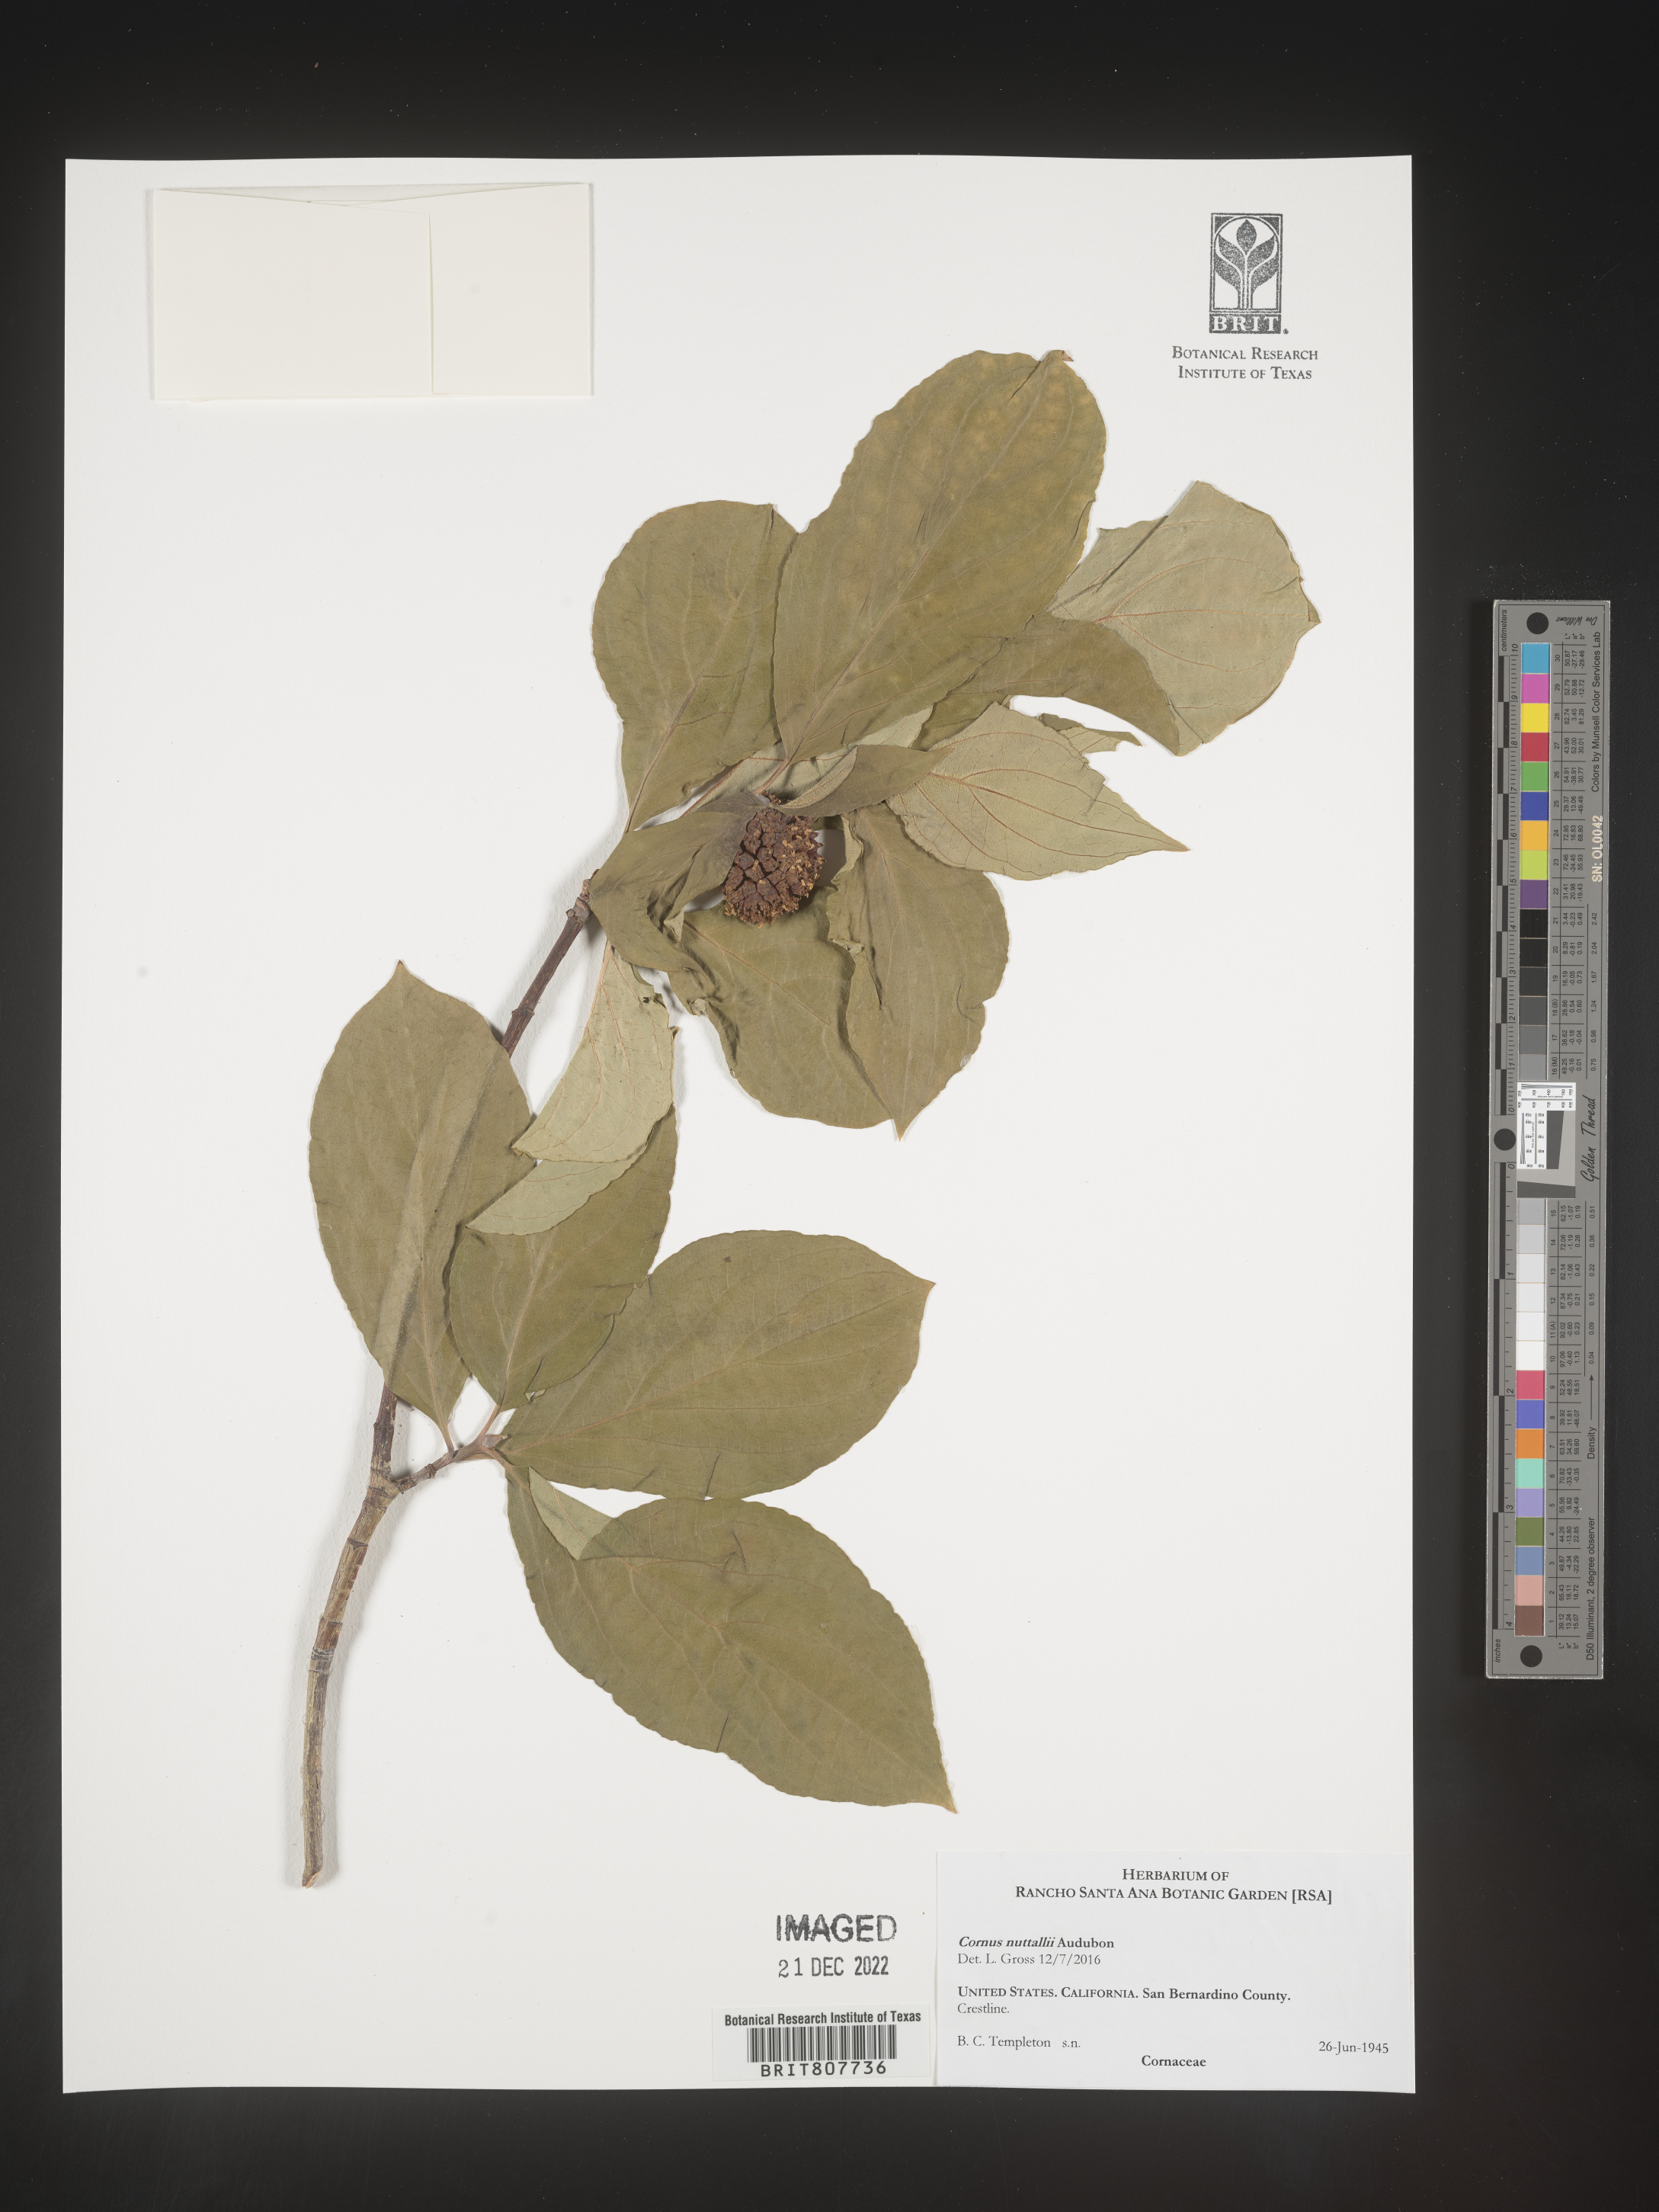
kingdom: Plantae
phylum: Tracheophyta
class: Magnoliopsida
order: Cornales
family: Cornaceae
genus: Cornus
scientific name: Cornus nuttallii
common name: Pacific dogwood
